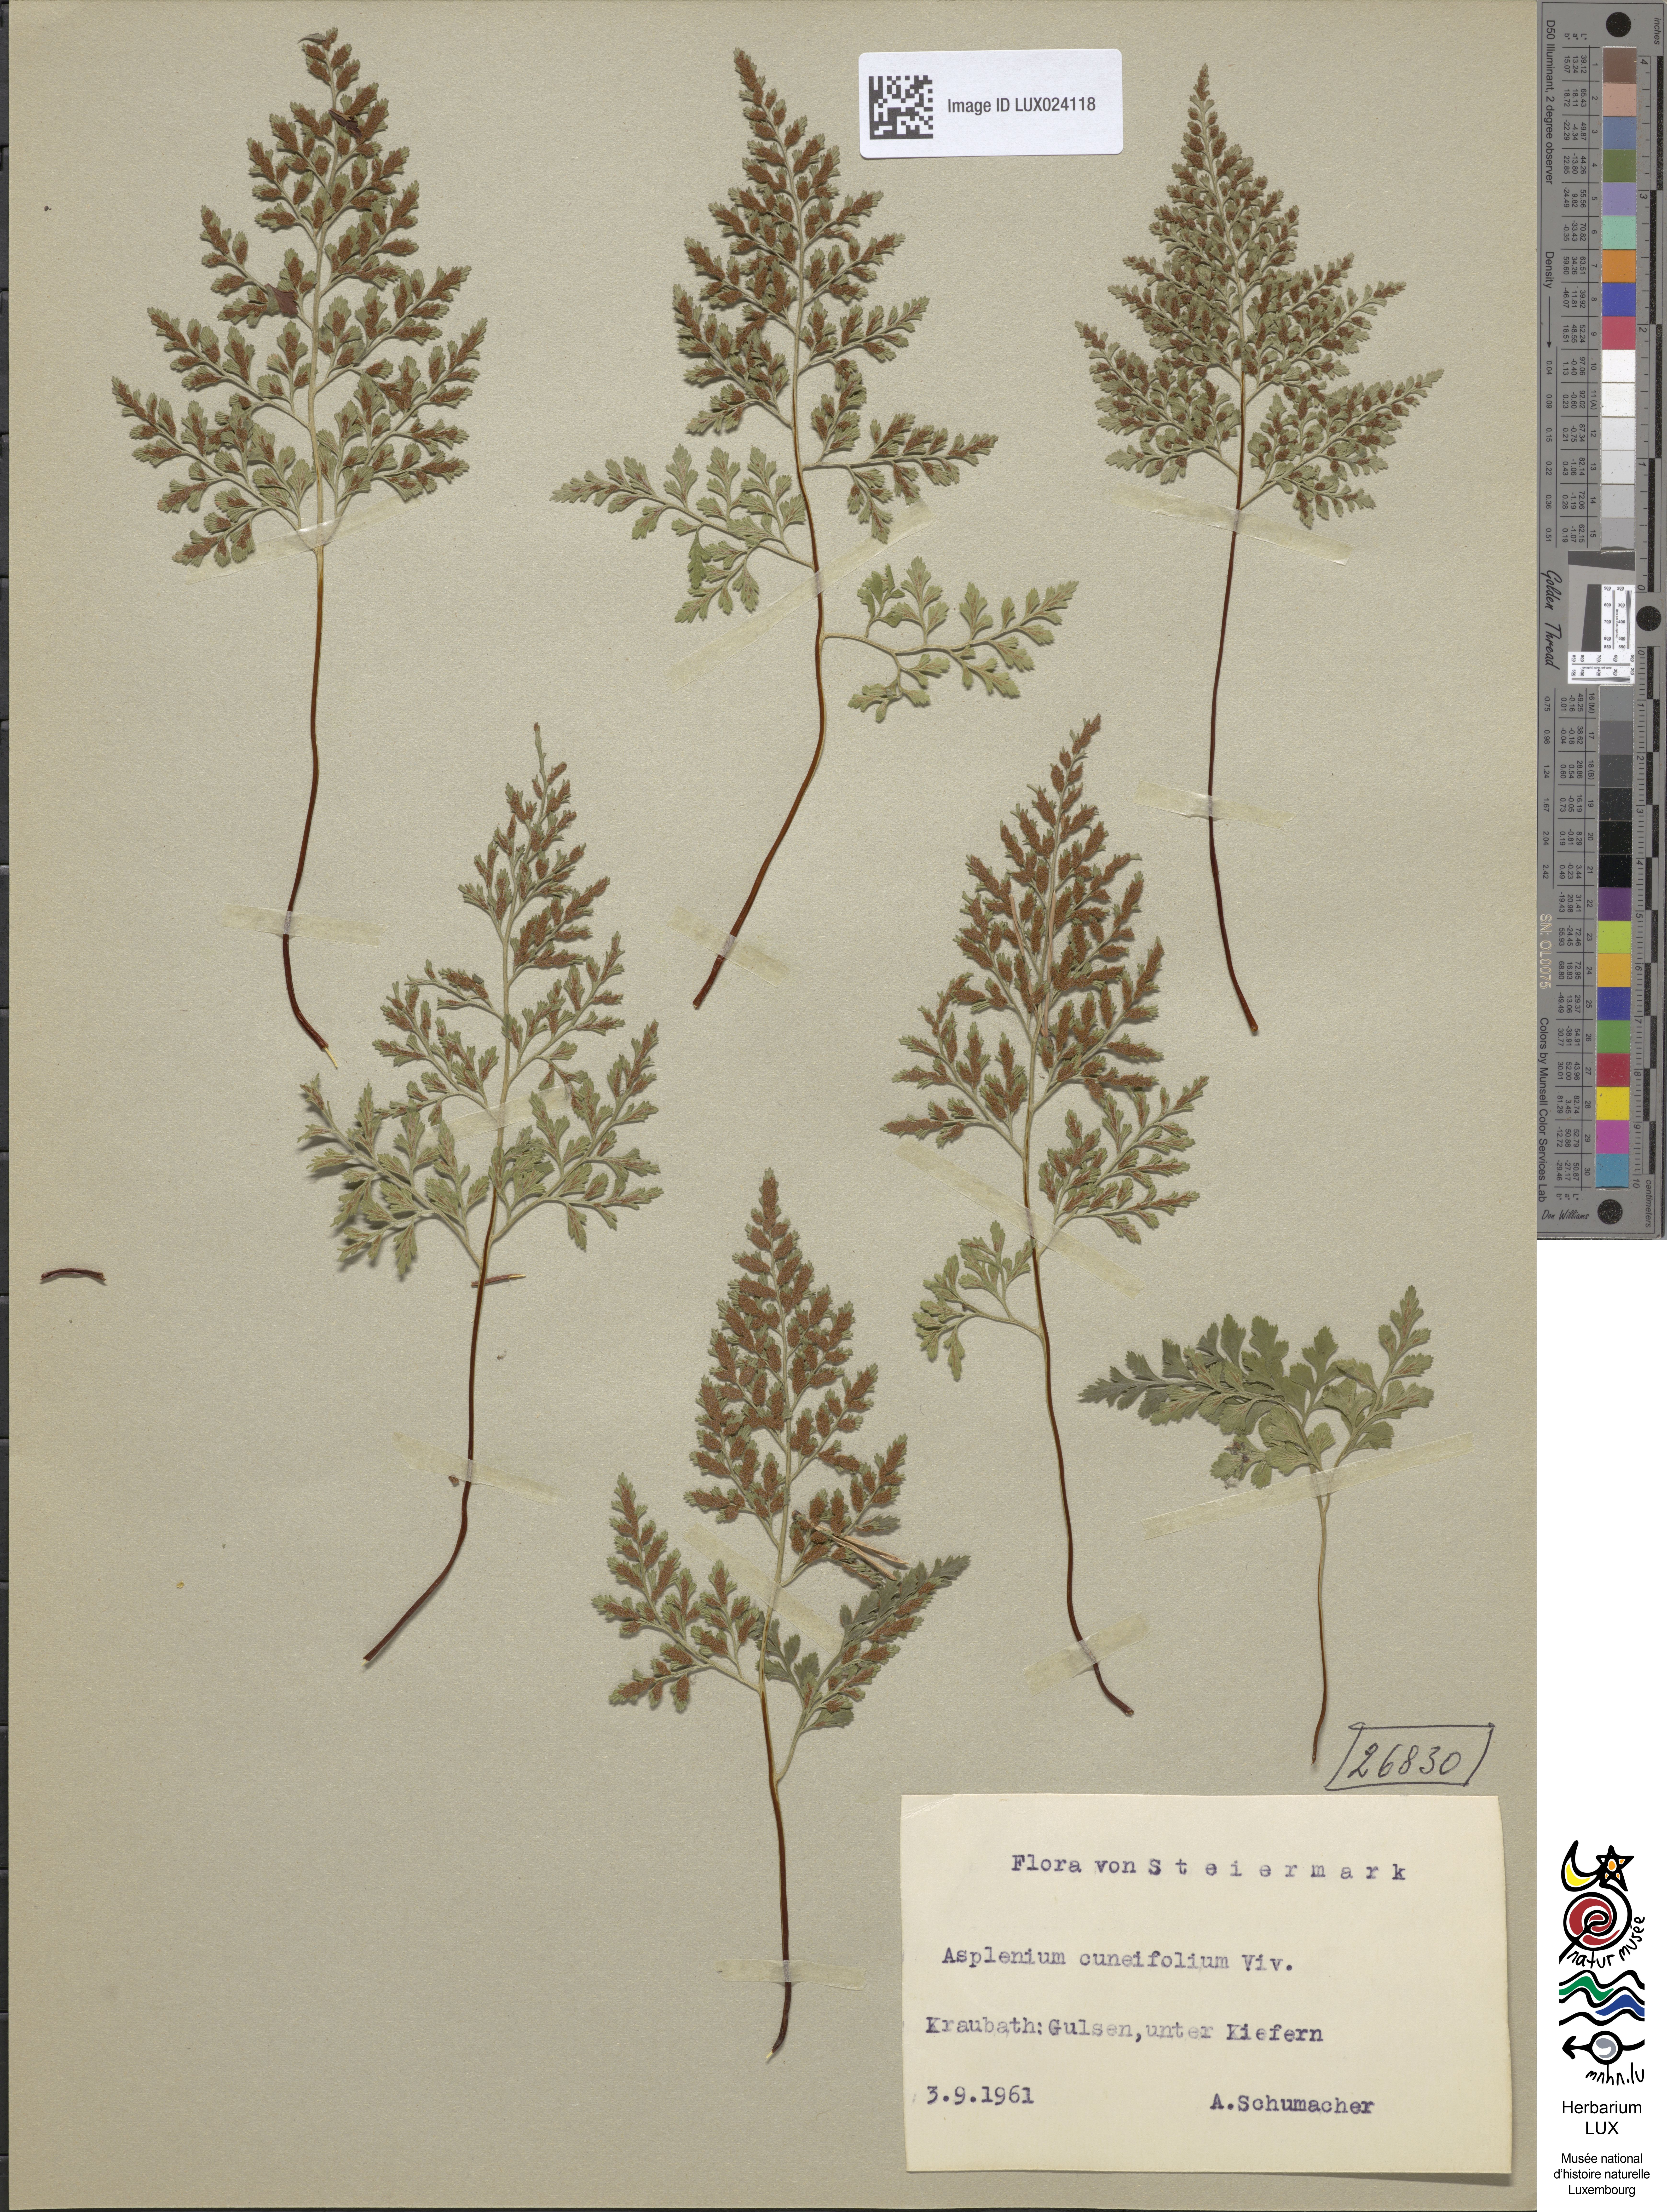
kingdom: Plantae
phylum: Tracheophyta
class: Polypodiopsida
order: Polypodiales
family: Aspleniaceae
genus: Asplenium
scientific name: Asplenium cuneifolium
